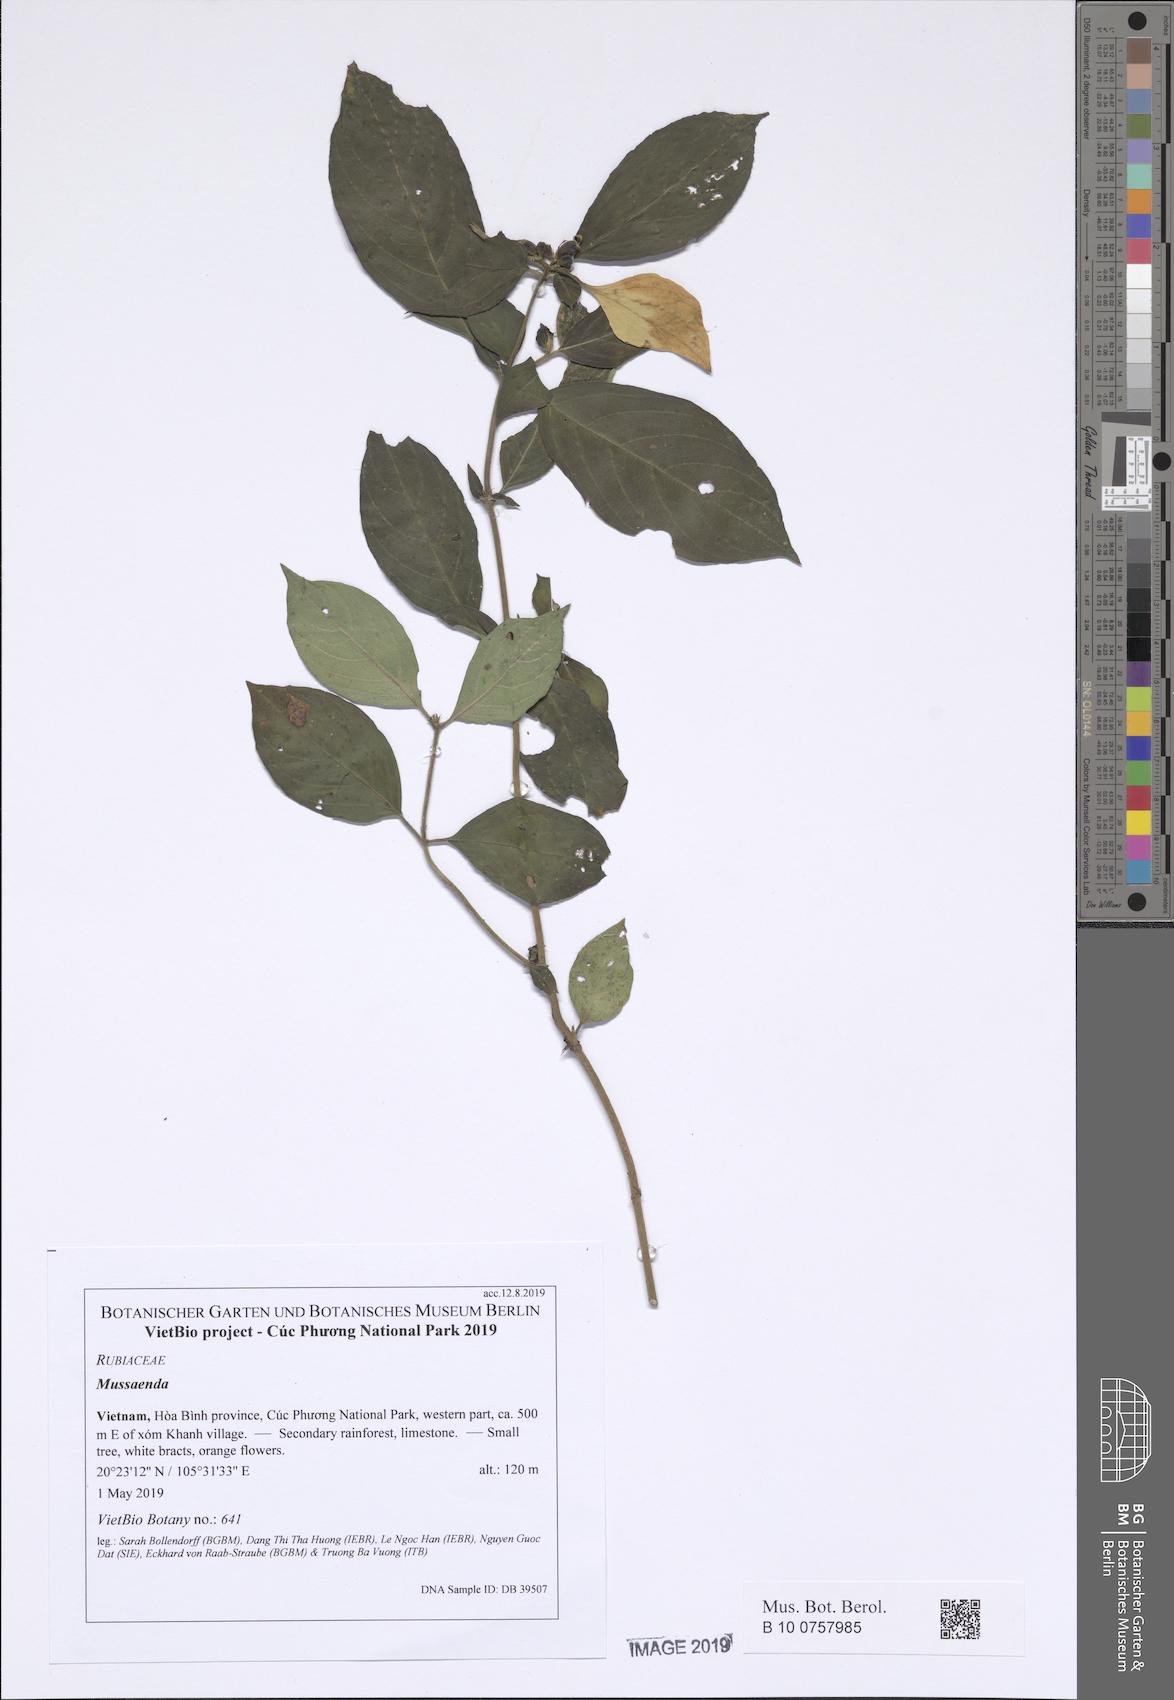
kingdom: Plantae
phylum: Tracheophyta
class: Magnoliopsida
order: Gentianales
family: Rubiaceae
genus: Mussaenda
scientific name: Mussaenda cambodiana
